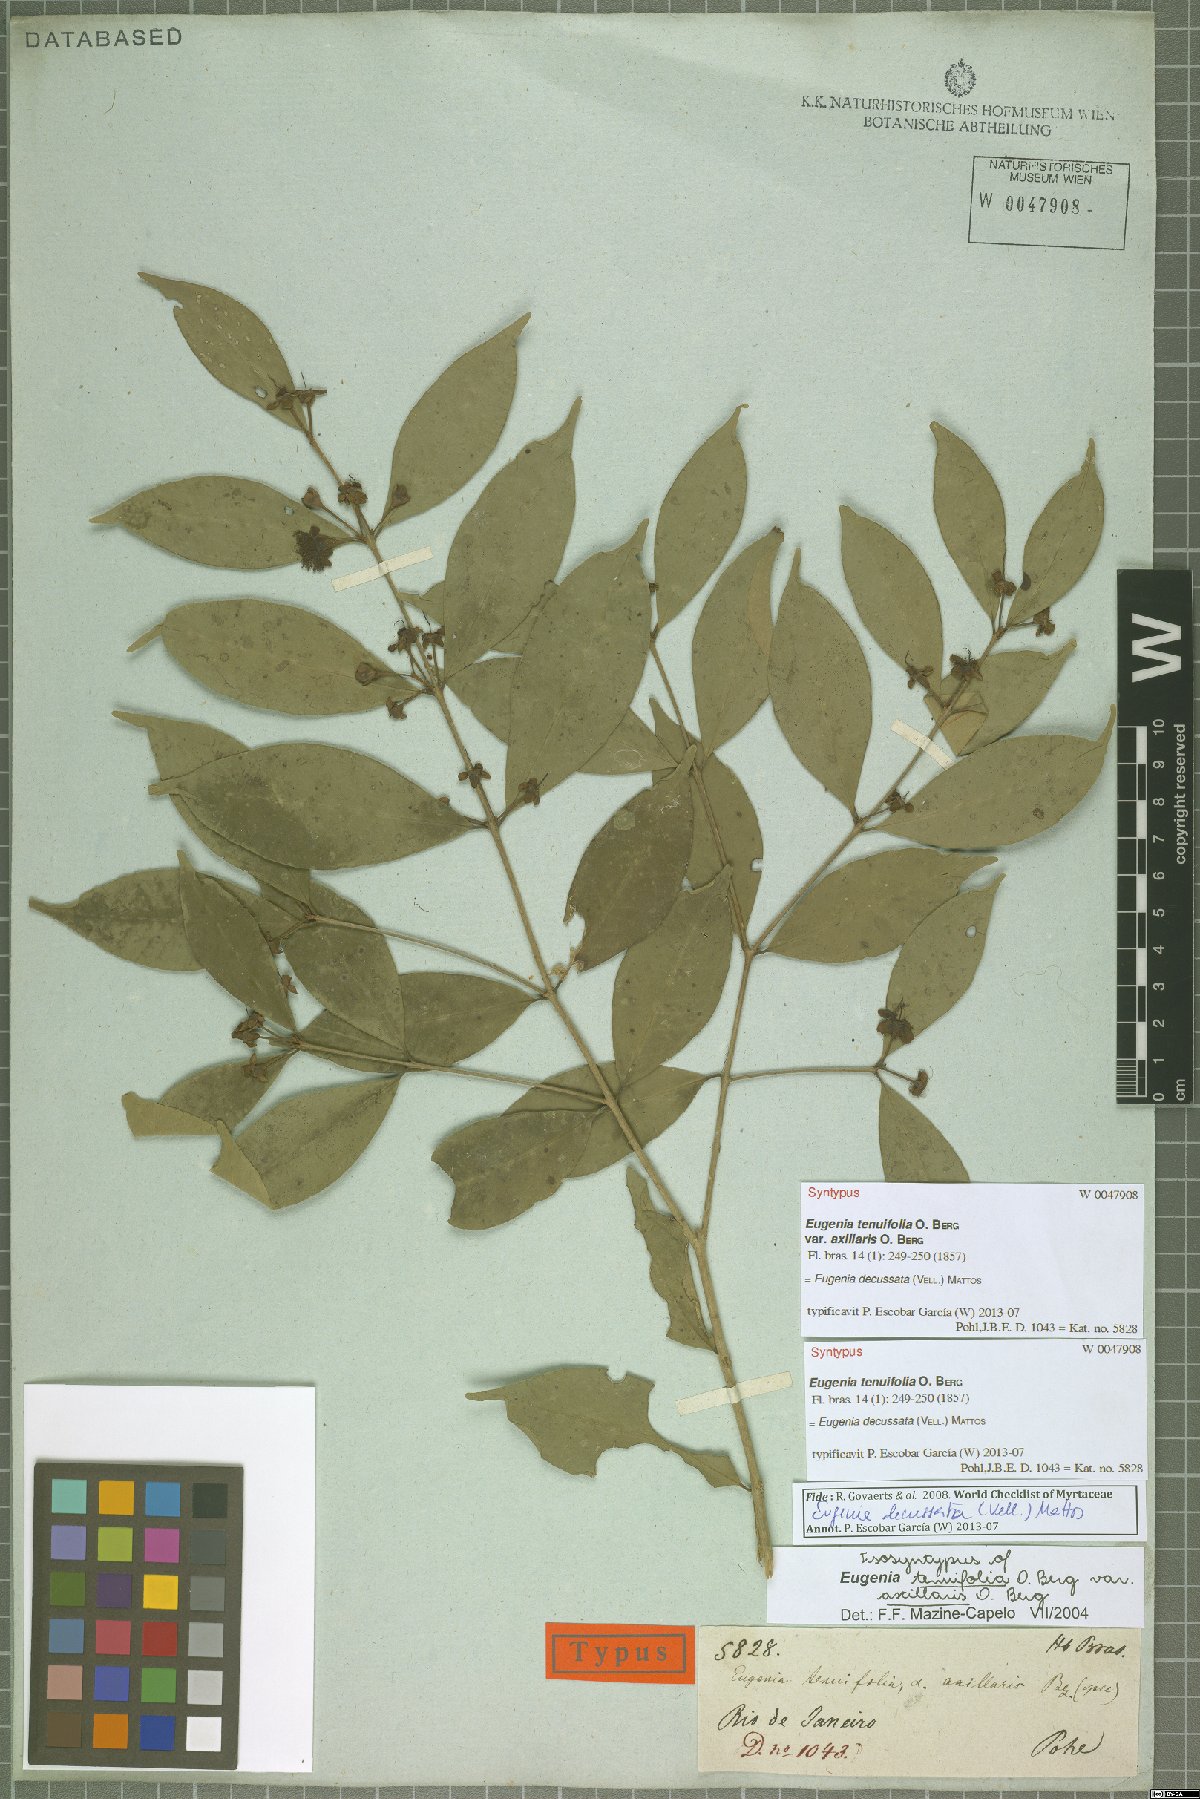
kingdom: Plantae
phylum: Tracheophyta
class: Magnoliopsida
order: Myrtales
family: Myrtaceae
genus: Eugenia
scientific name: Eugenia decussata
